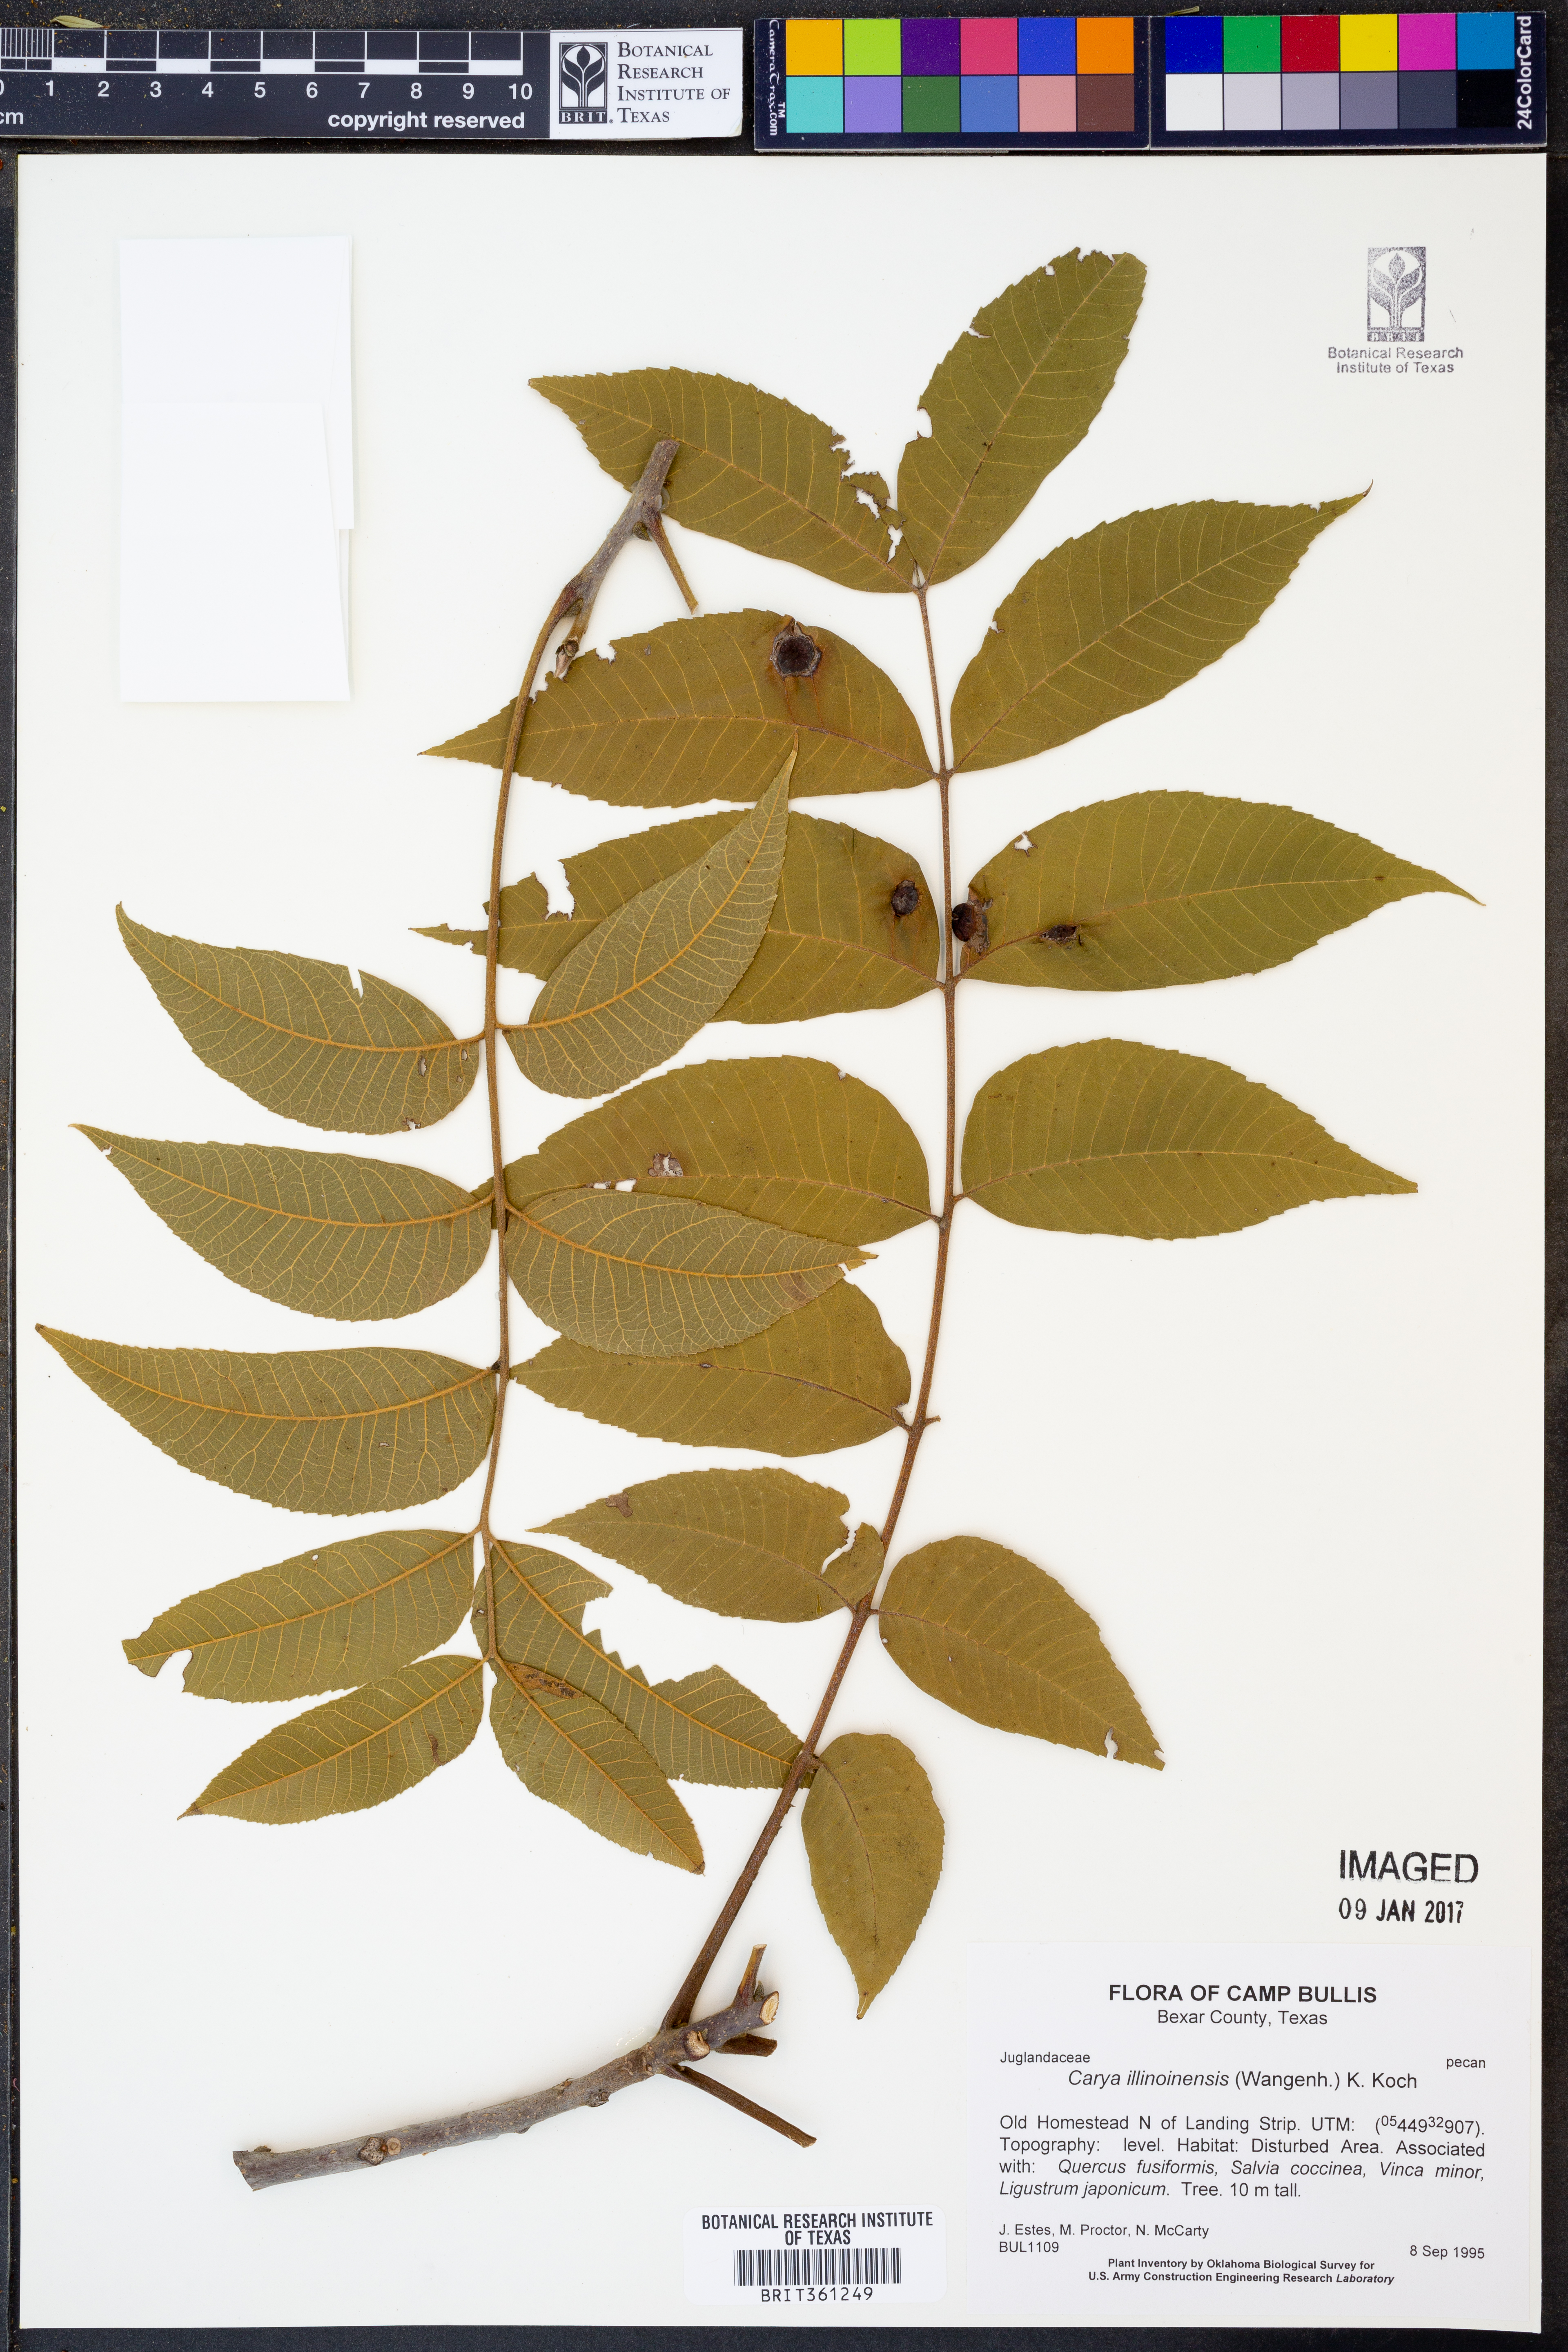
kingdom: Plantae
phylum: Tracheophyta
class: Magnoliopsida
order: Fagales
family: Juglandaceae
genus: Carya
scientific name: Carya illinoinensis
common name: Pecan
